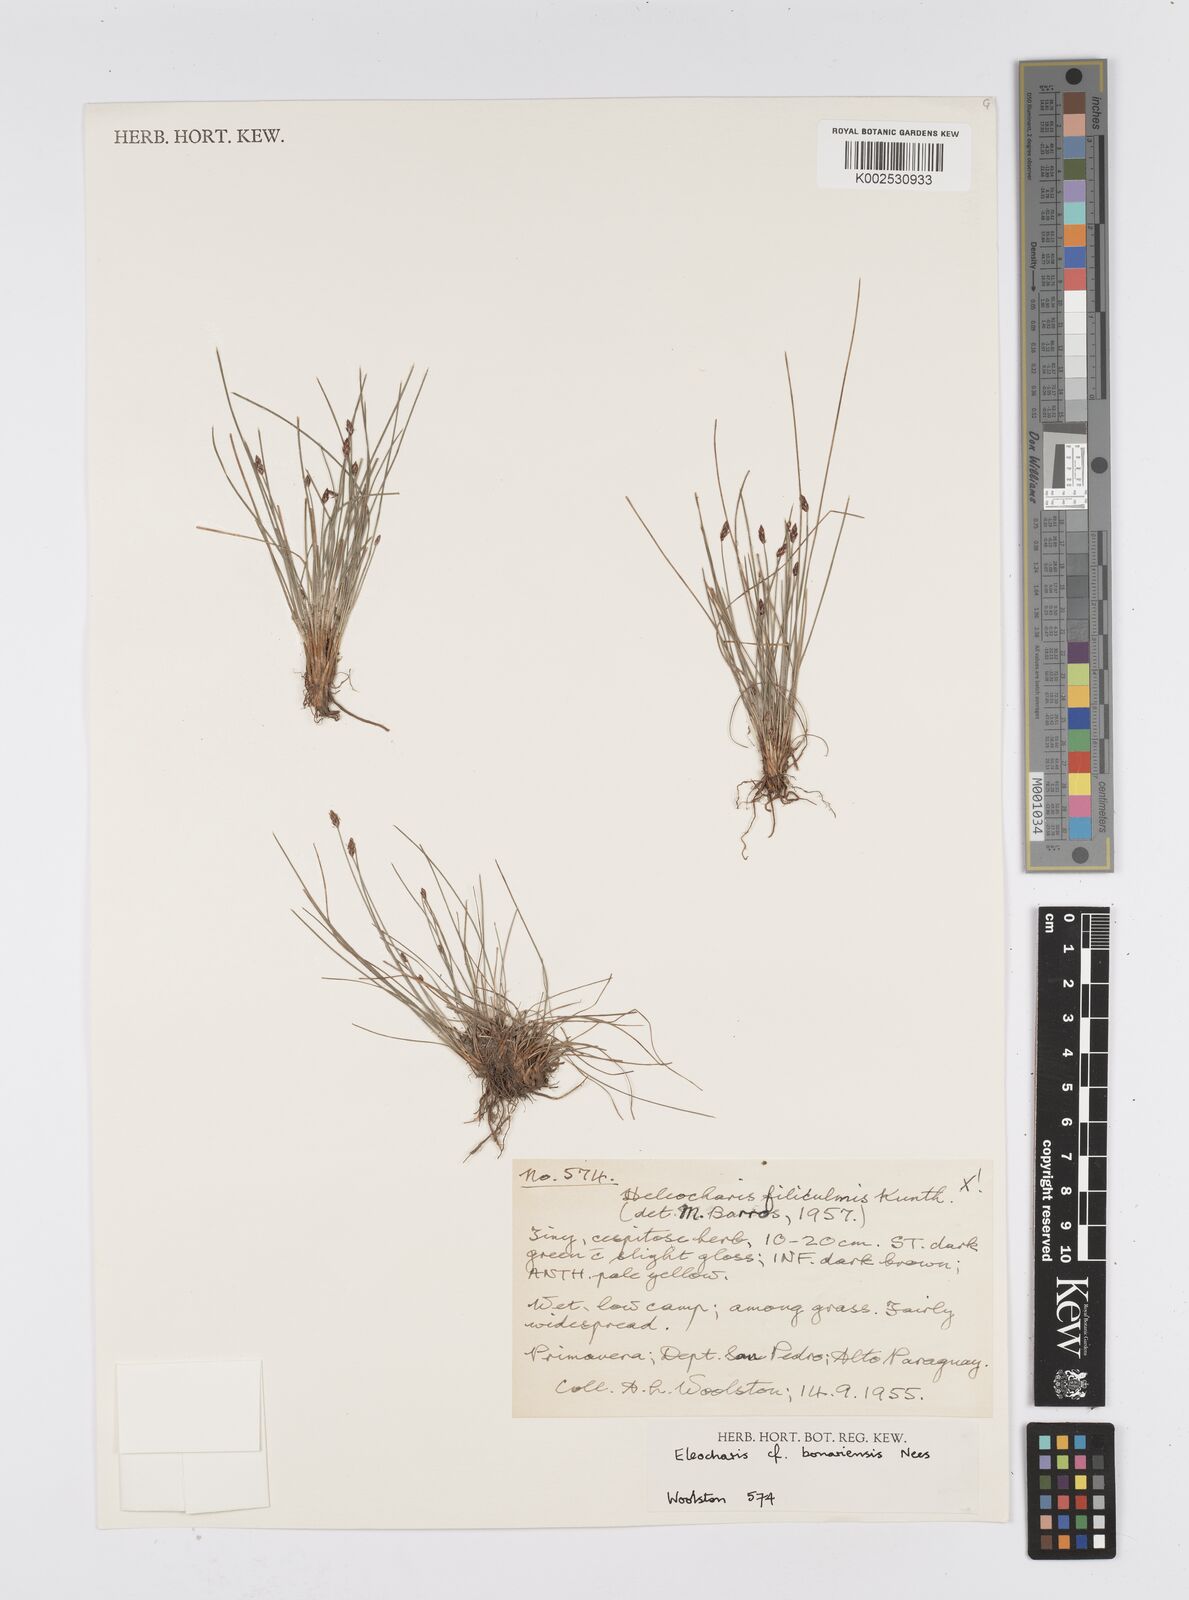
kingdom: Plantae
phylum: Tracheophyta
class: Liliopsida
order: Poales
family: Cyperaceae
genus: Eleocharis
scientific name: Eleocharis bonariensis
